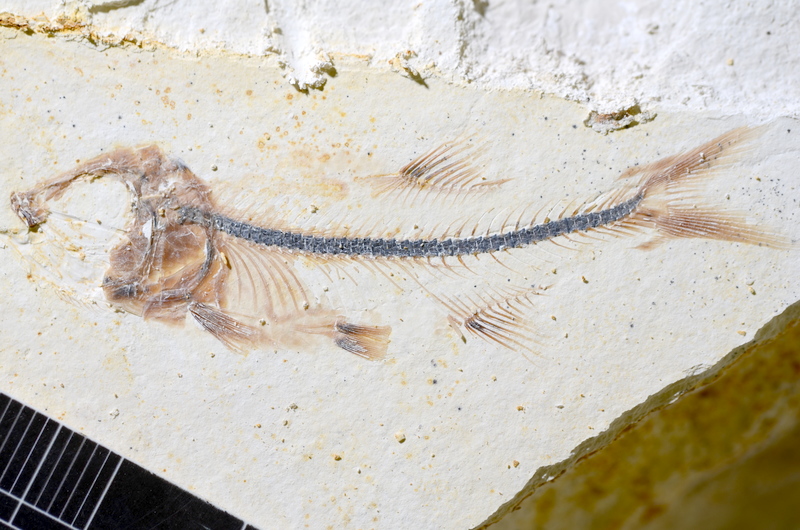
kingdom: Animalia
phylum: Chordata
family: Ascalaboidae
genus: Ebertichthys
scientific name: Ebertichthys ettlingensis
